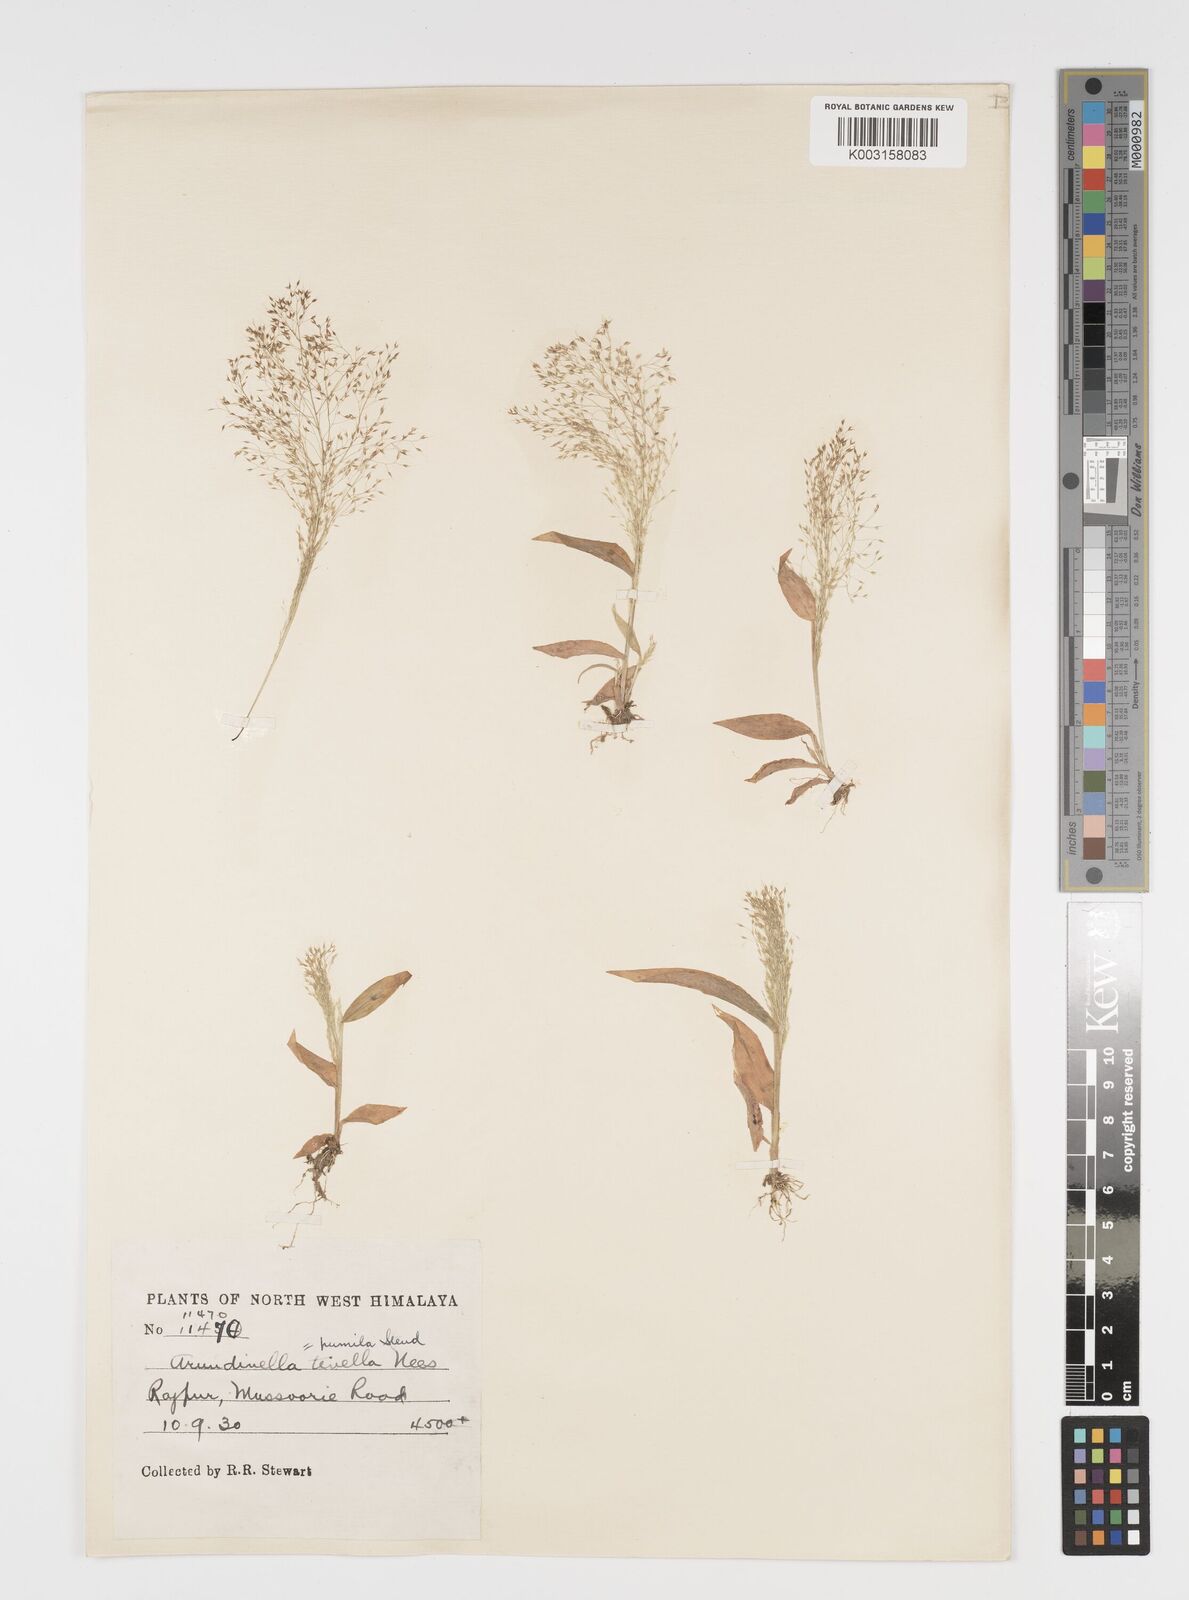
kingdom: Plantae
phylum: Tracheophyta
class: Liliopsida
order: Poales
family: Poaceae
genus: Arundinella
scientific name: Arundinella pumila
